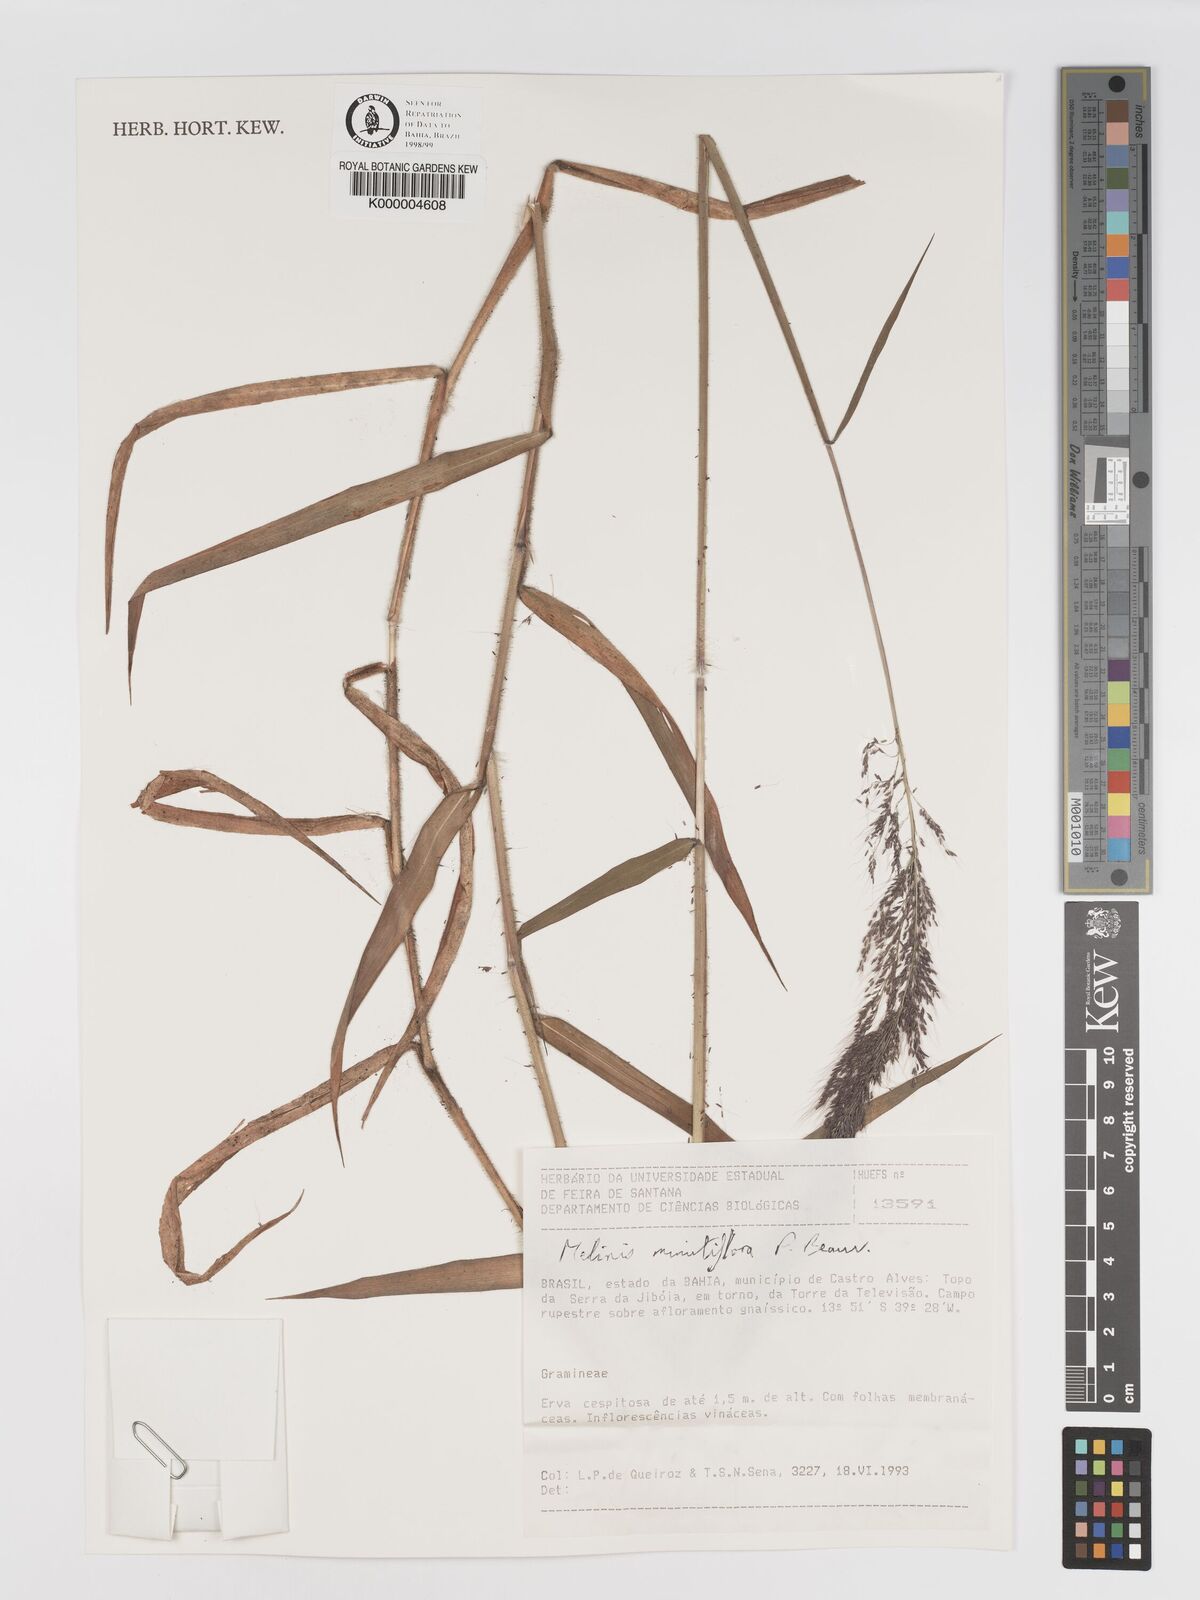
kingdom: Plantae
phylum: Tracheophyta
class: Liliopsida
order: Poales
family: Poaceae
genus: Melinis
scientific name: Melinis minutiflora
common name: Molassesgrass
